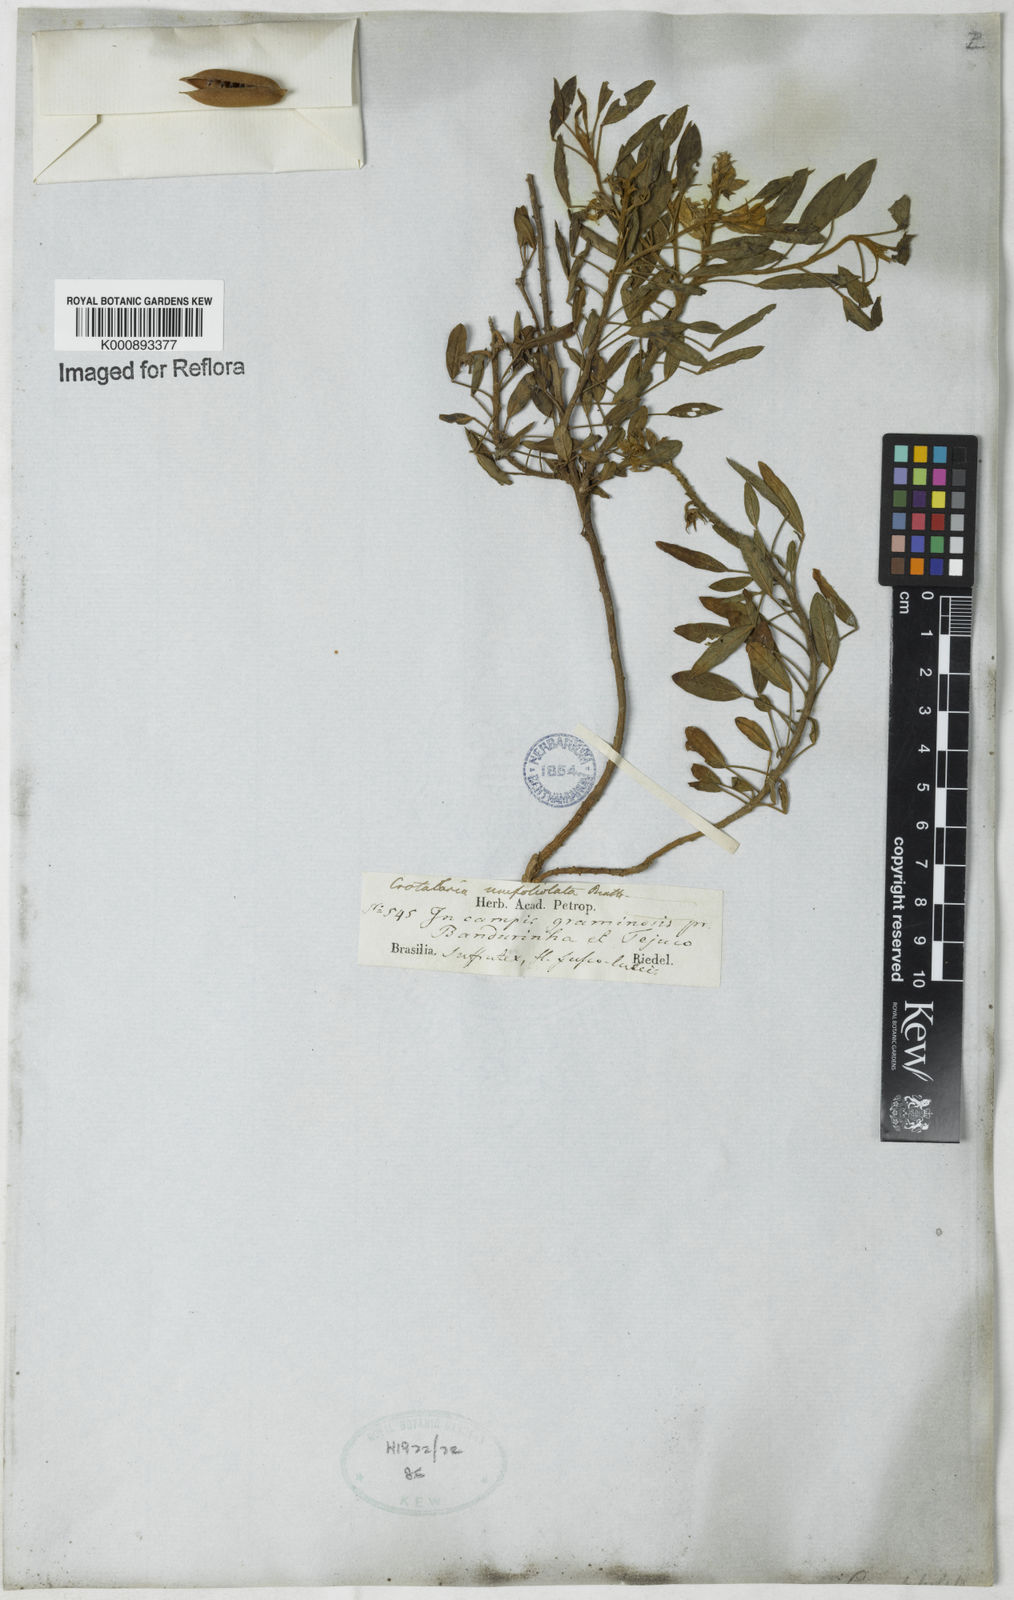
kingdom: Plantae
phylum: Tracheophyta
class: Magnoliopsida
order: Fabales
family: Fabaceae
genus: Crotalaria
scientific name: Crotalaria unifoliolata
